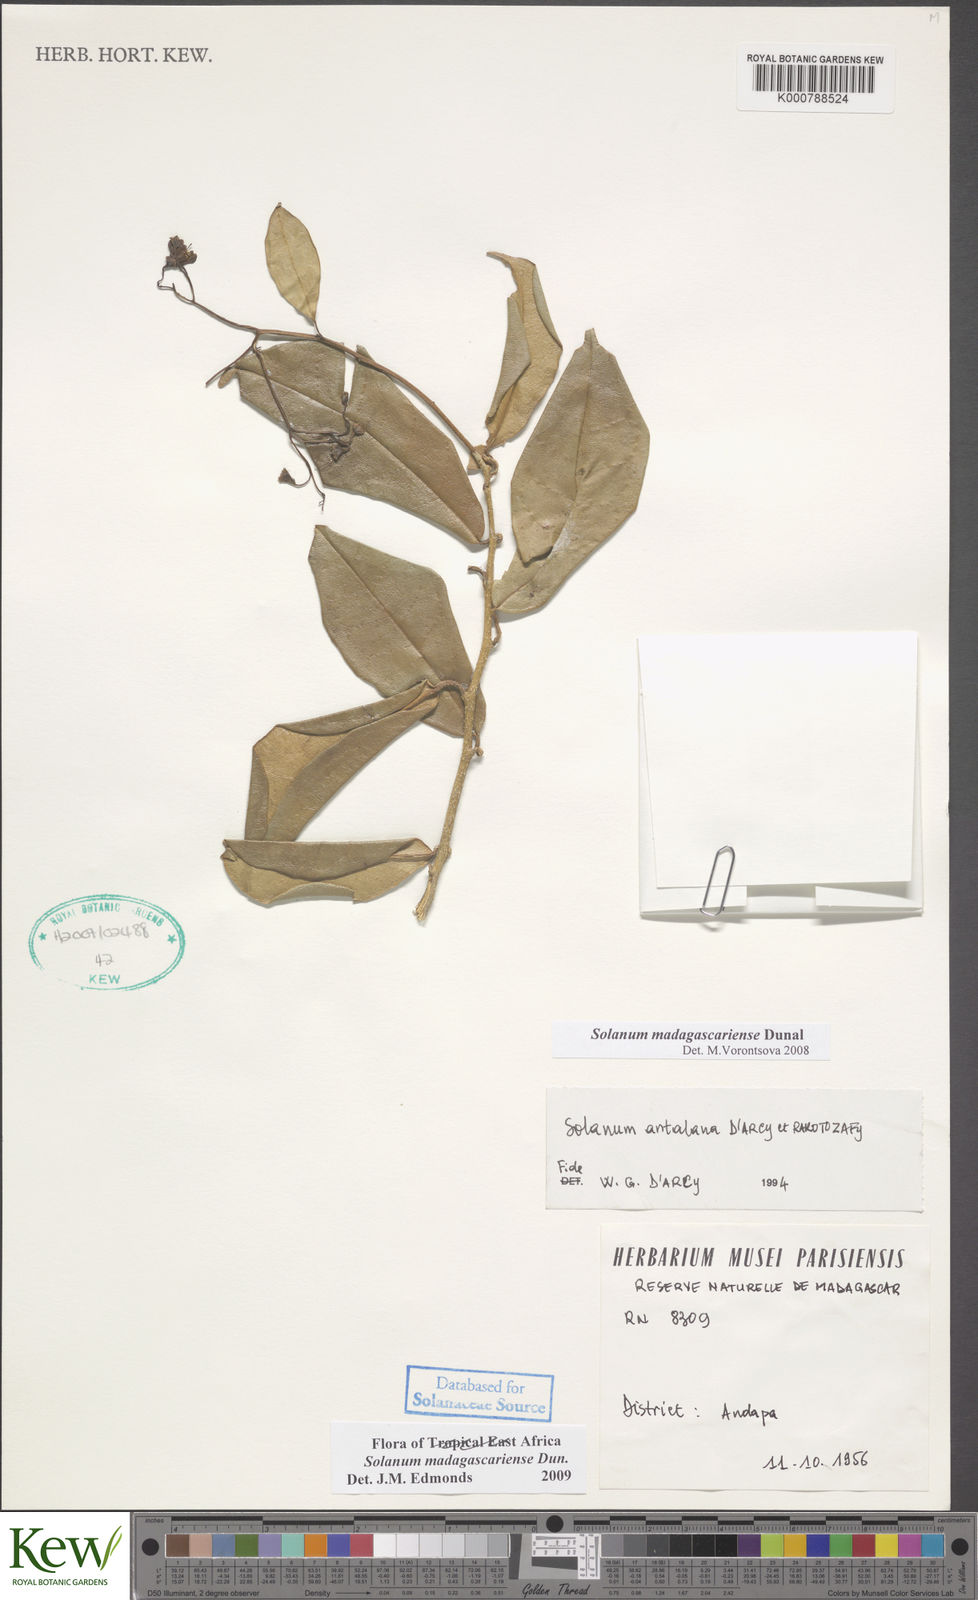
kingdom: Plantae
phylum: Tracheophyta
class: Magnoliopsida
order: Solanales
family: Solanaceae
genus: Solanum
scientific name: Solanum madagascariense
